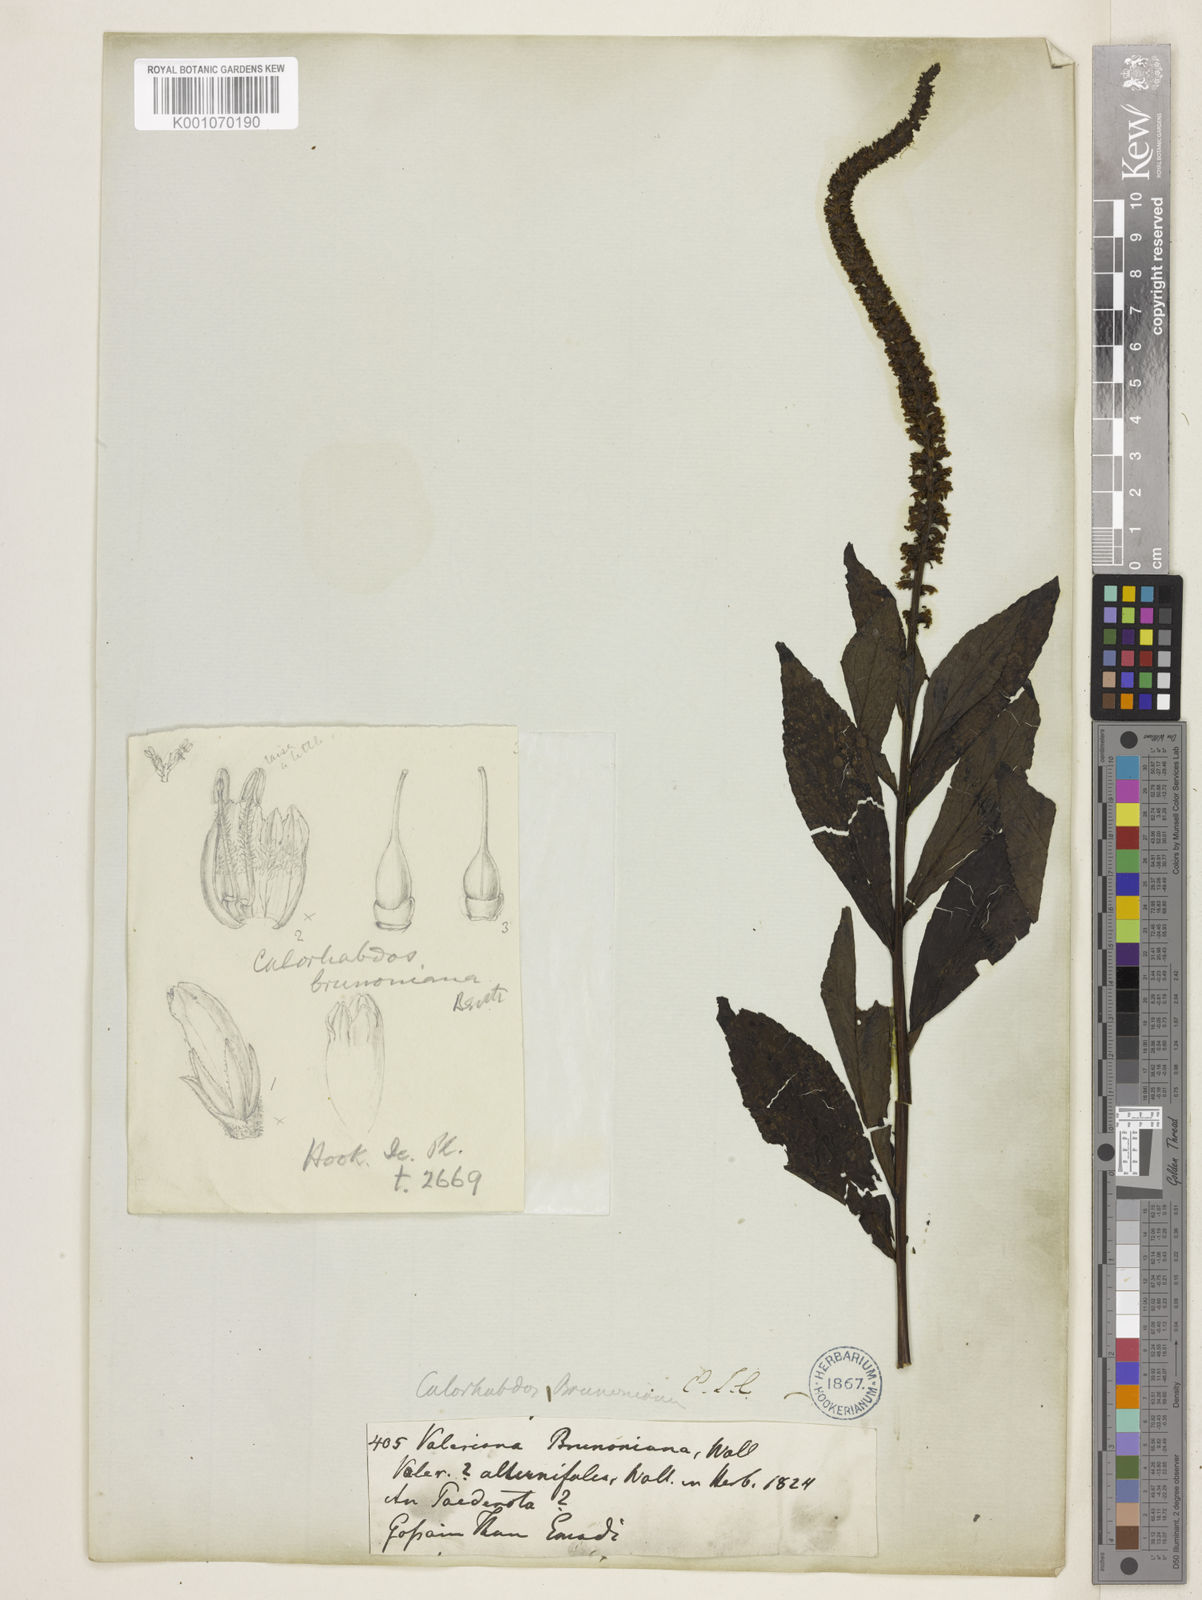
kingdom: Plantae
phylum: Tracheophyta
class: Magnoliopsida
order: Lamiales
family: Plantaginaceae
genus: Veronicastrum
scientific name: Veronicastrum brunonianum
